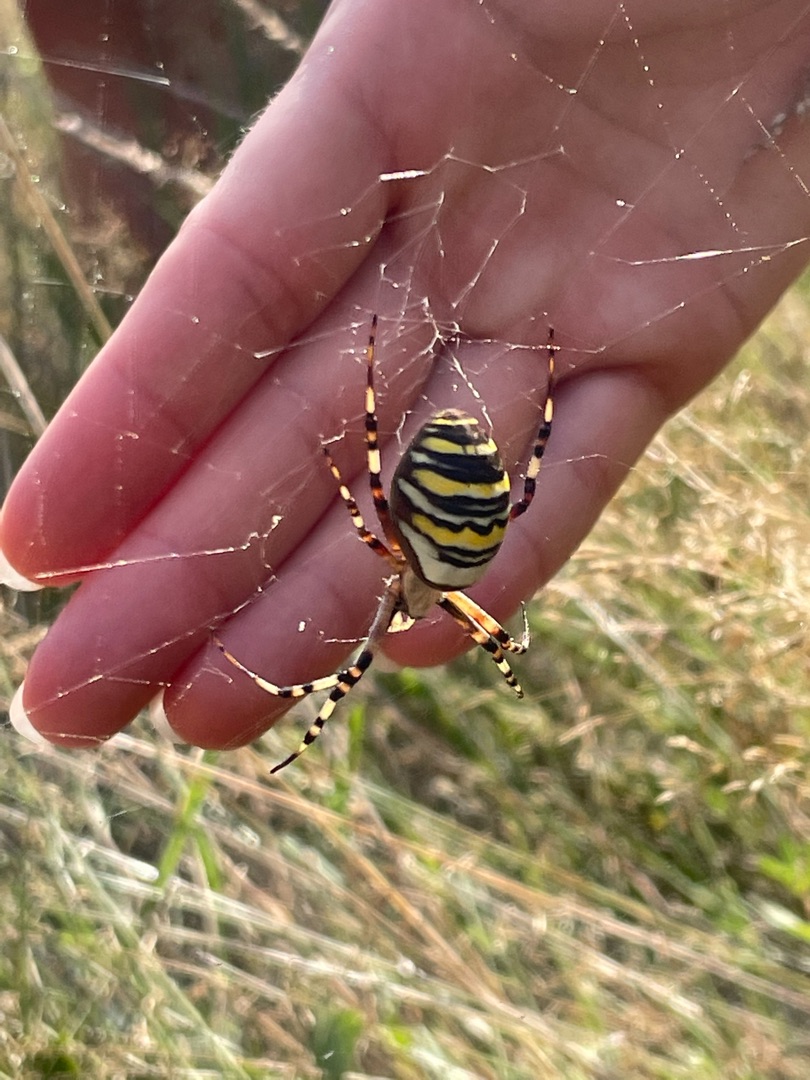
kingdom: Animalia
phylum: Arthropoda
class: Arachnida
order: Araneae
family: Araneidae
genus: Argiope
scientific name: Argiope bruennichi
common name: Hvepseedderkop
